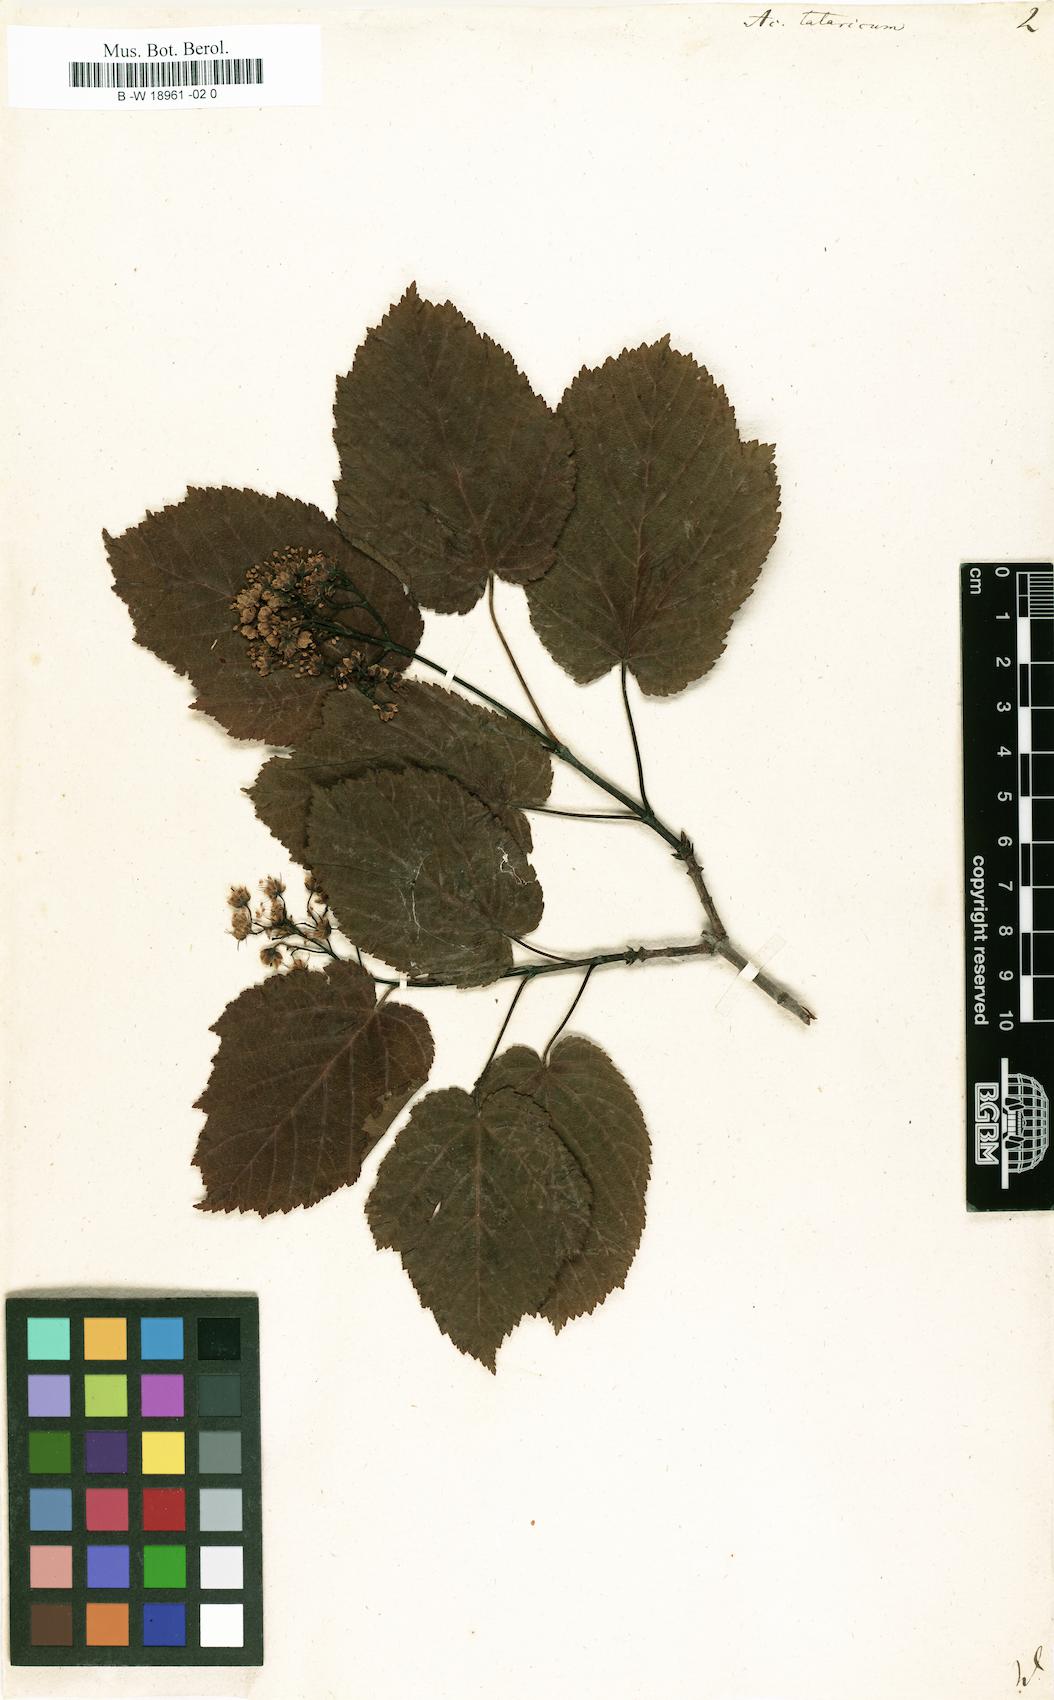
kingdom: Plantae
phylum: Tracheophyta
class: Magnoliopsida
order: Sapindales
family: Sapindaceae
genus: Acer
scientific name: Acer tataricum
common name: Tartar maple
